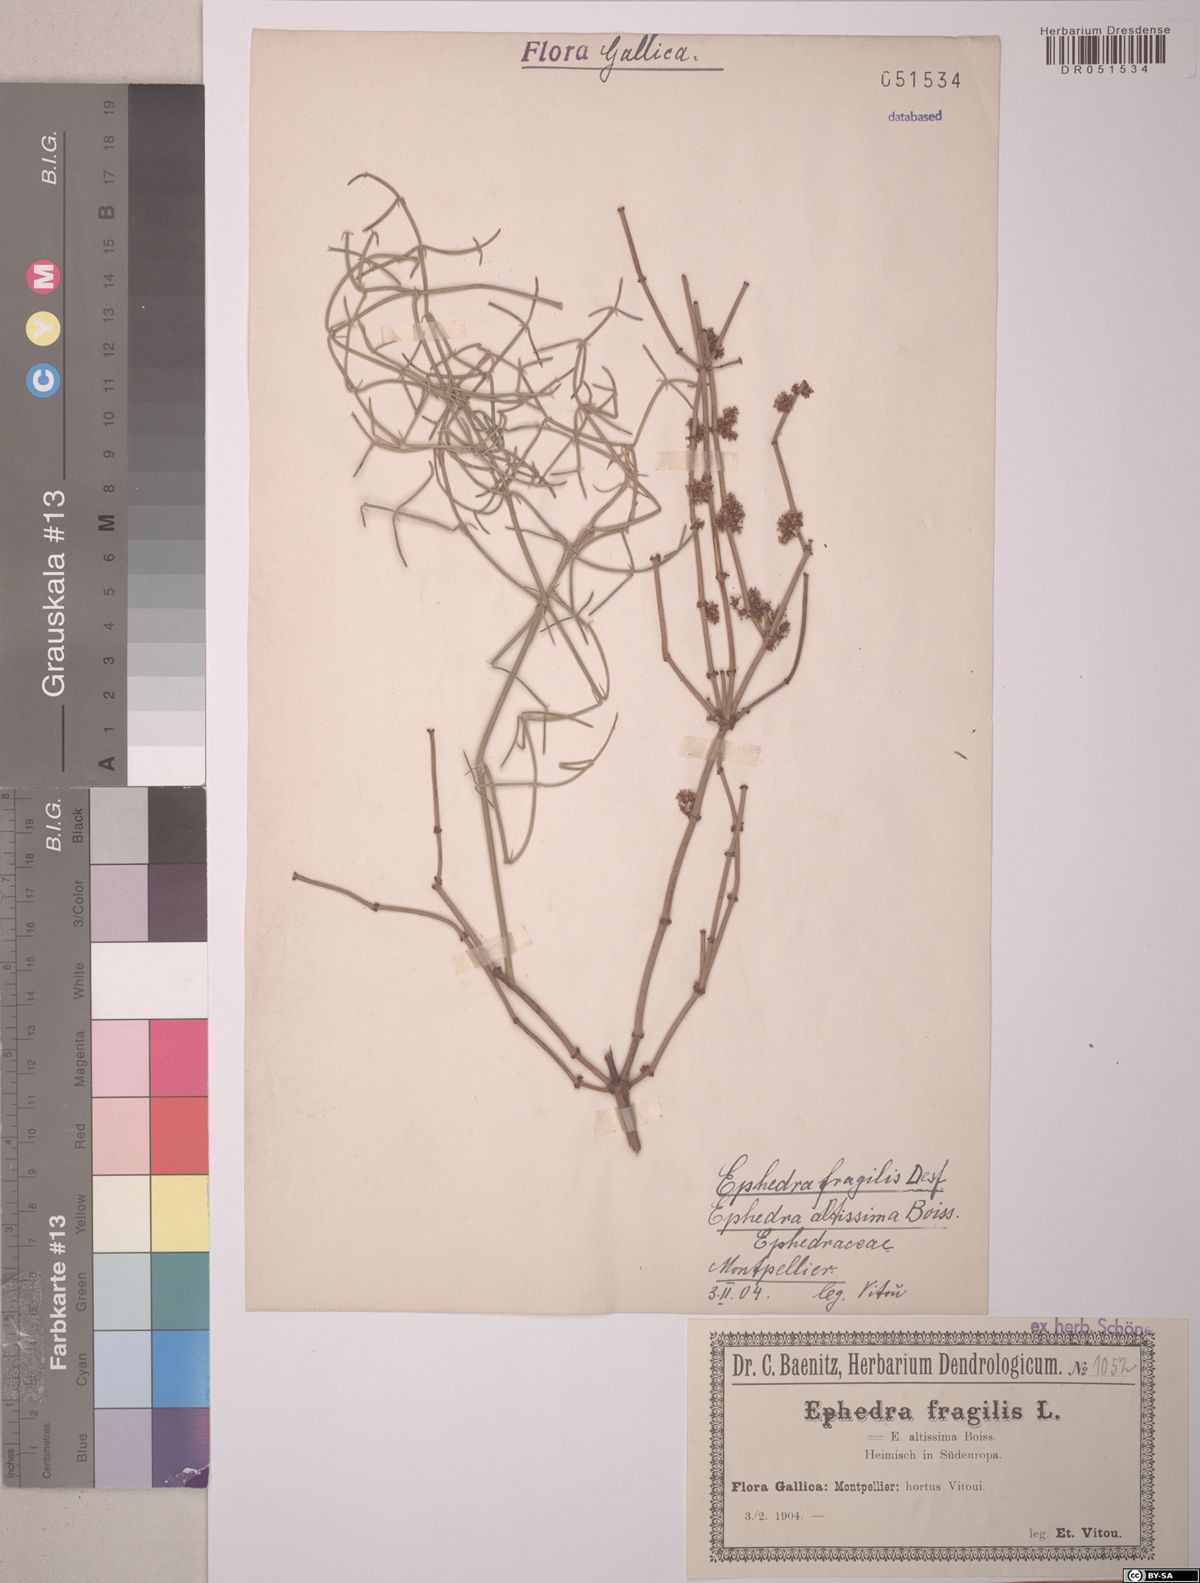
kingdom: Plantae
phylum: Tracheophyta
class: Gnetopsida
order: Ephedrales
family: Ephedraceae
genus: Ephedra
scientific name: Ephedra fragilis
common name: Joint pine
